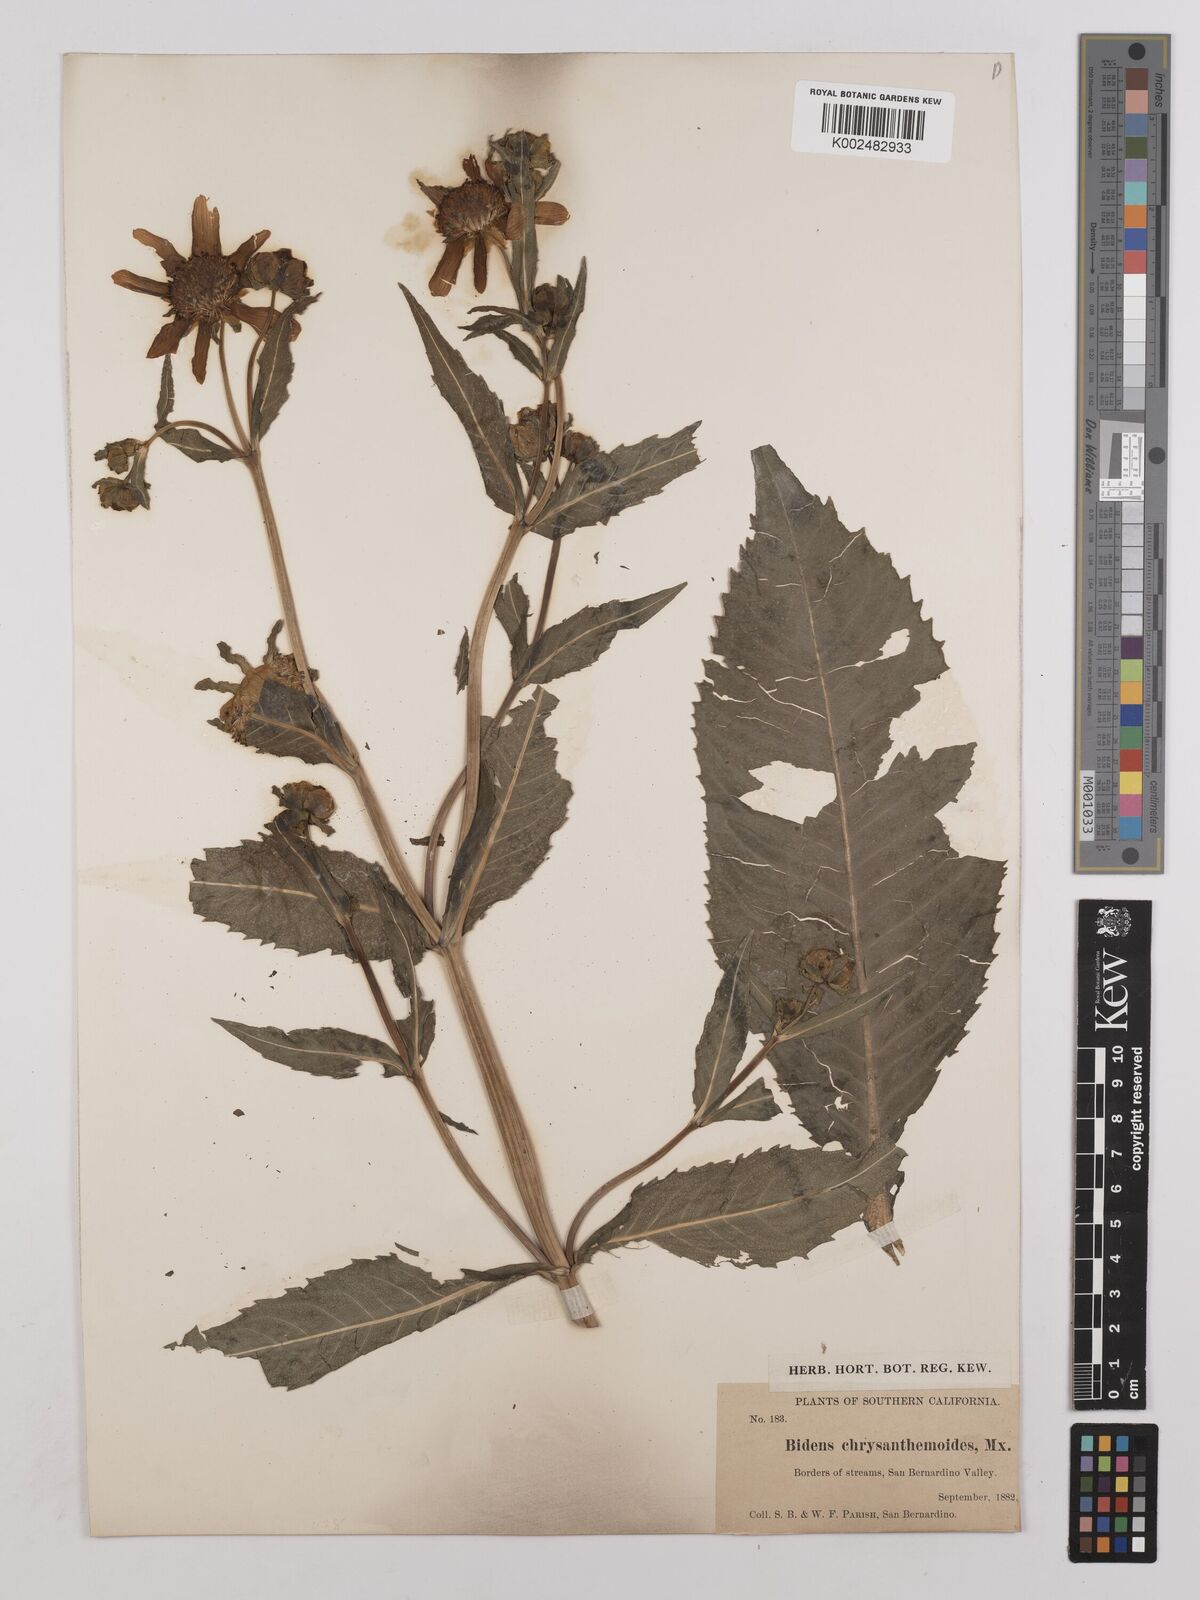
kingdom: Plantae
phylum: Tracheophyta
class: Magnoliopsida
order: Asterales
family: Asteraceae
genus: Bidens
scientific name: Bidens laevis
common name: Larger bur-marigold
